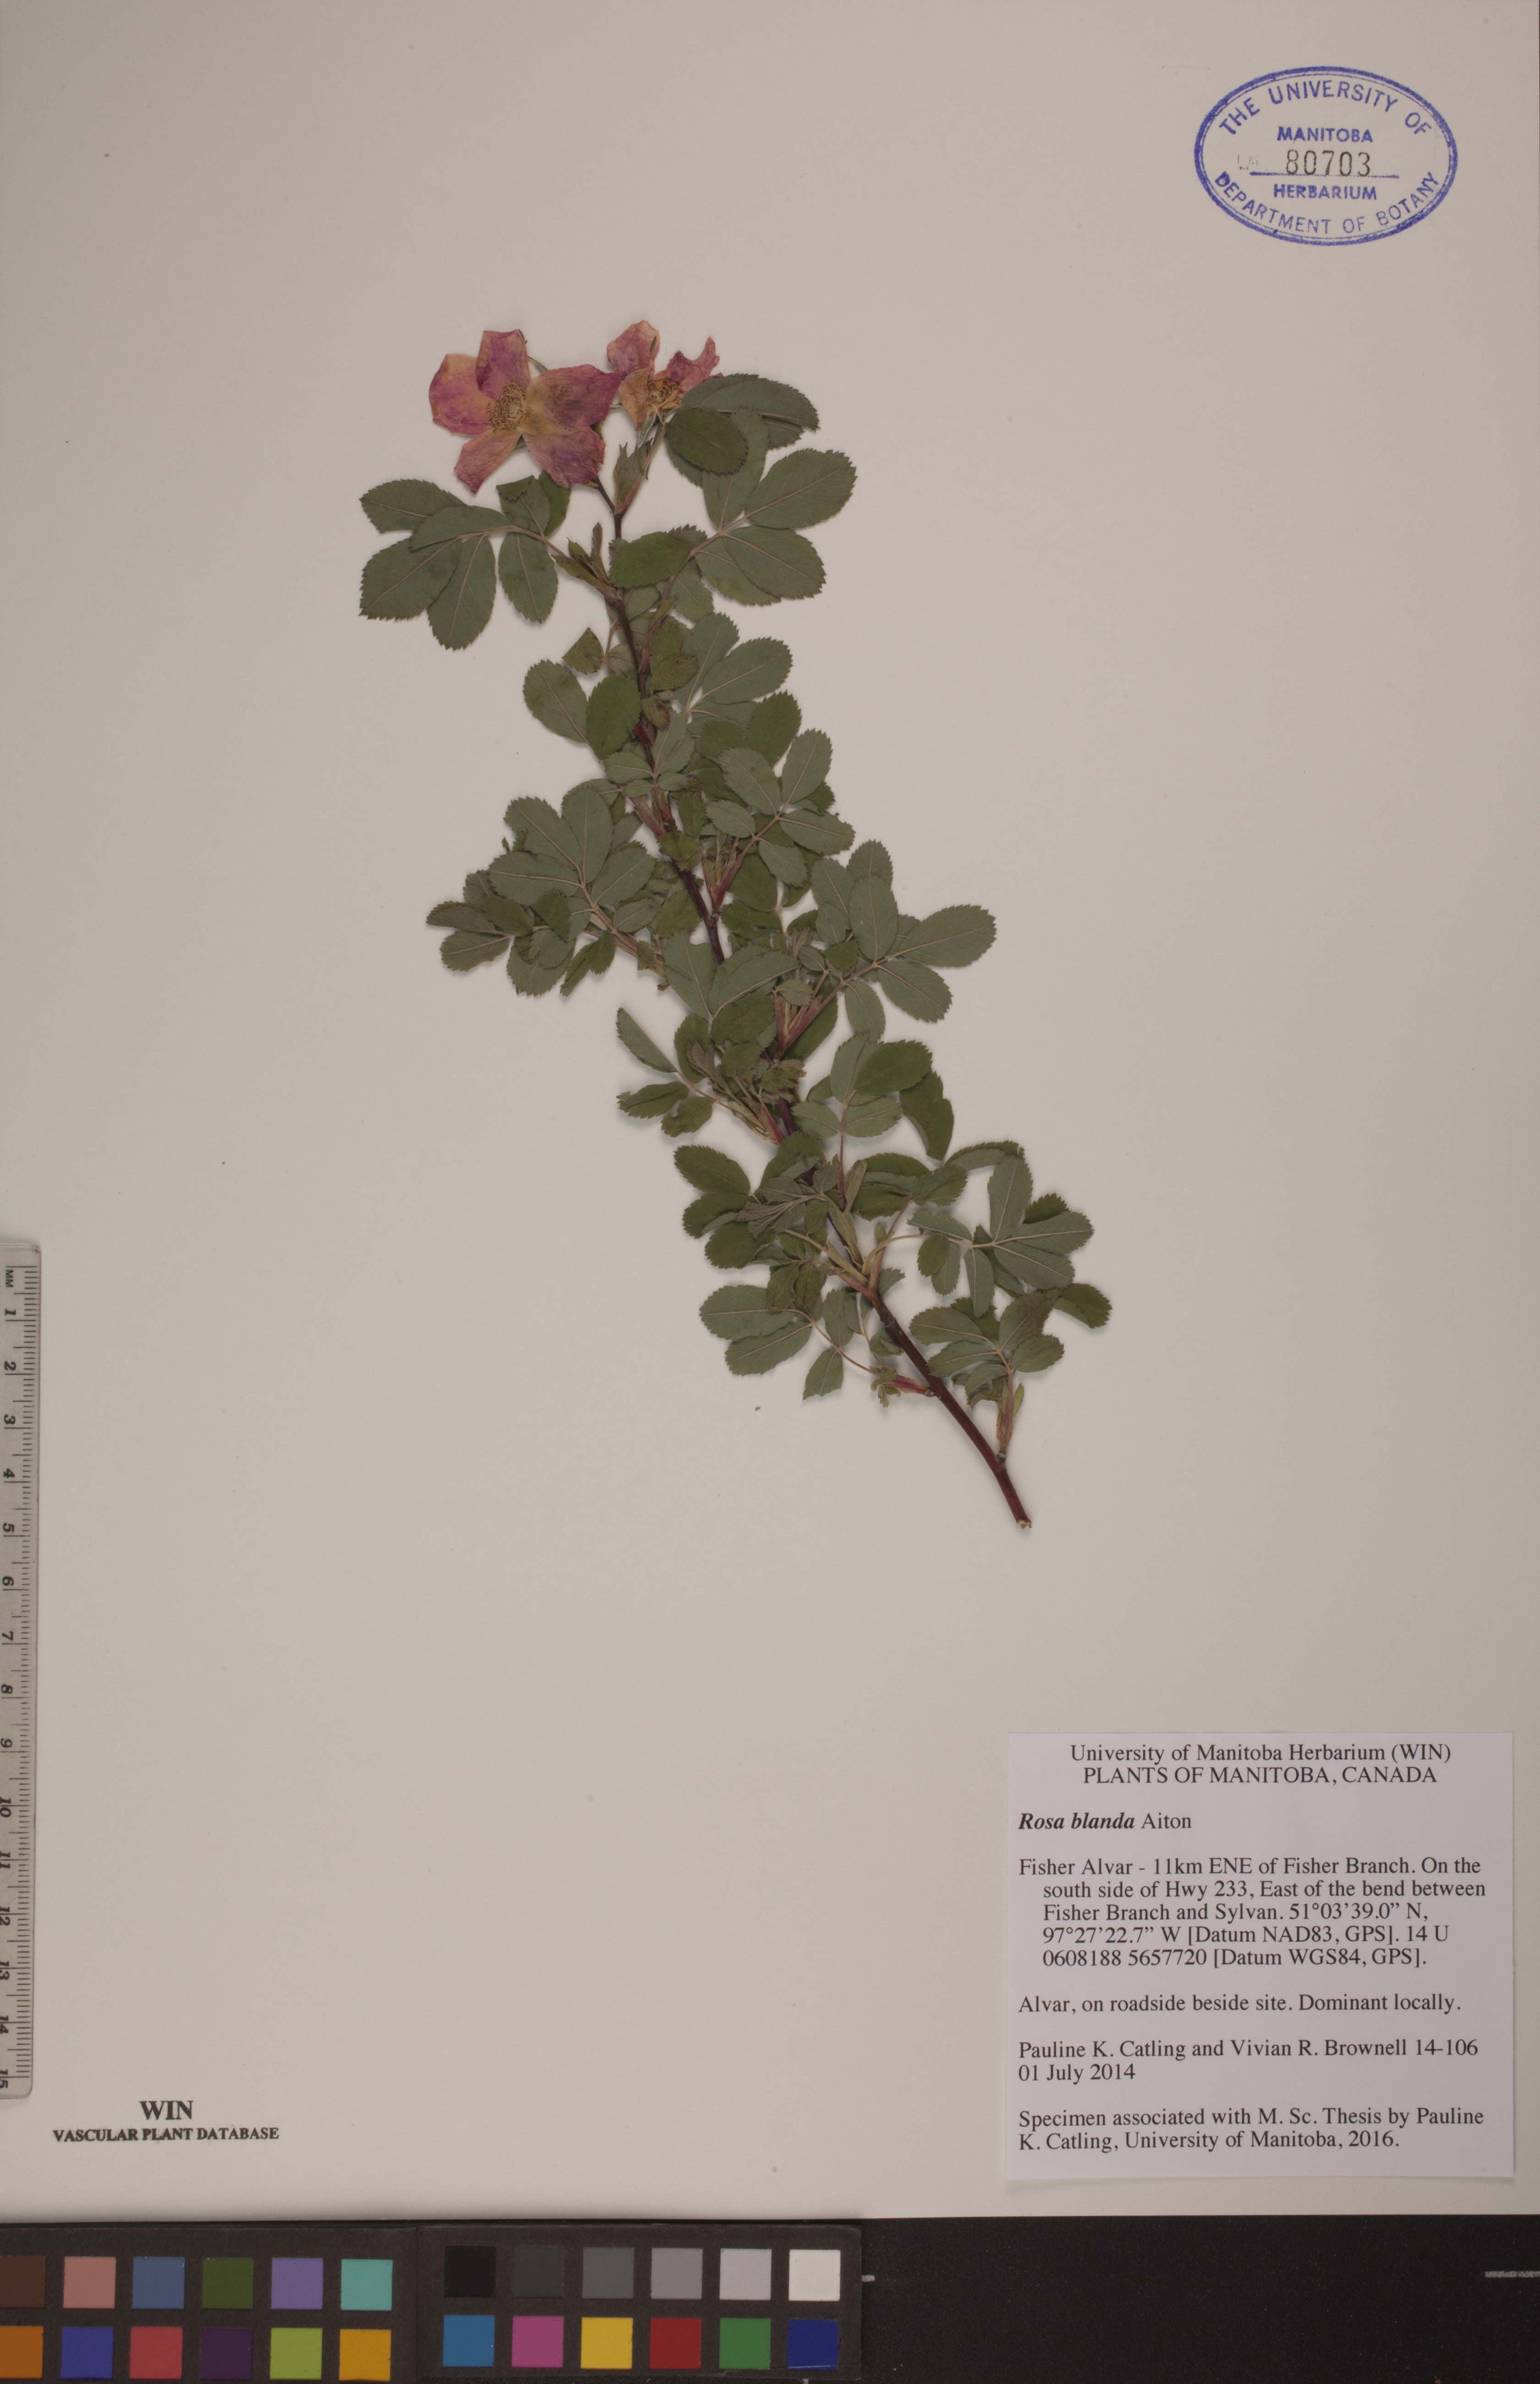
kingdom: Plantae
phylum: Tracheophyta
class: Magnoliopsida
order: Rosales
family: Rosaceae
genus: Rosa
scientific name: Rosa blanda
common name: Smooth rose
